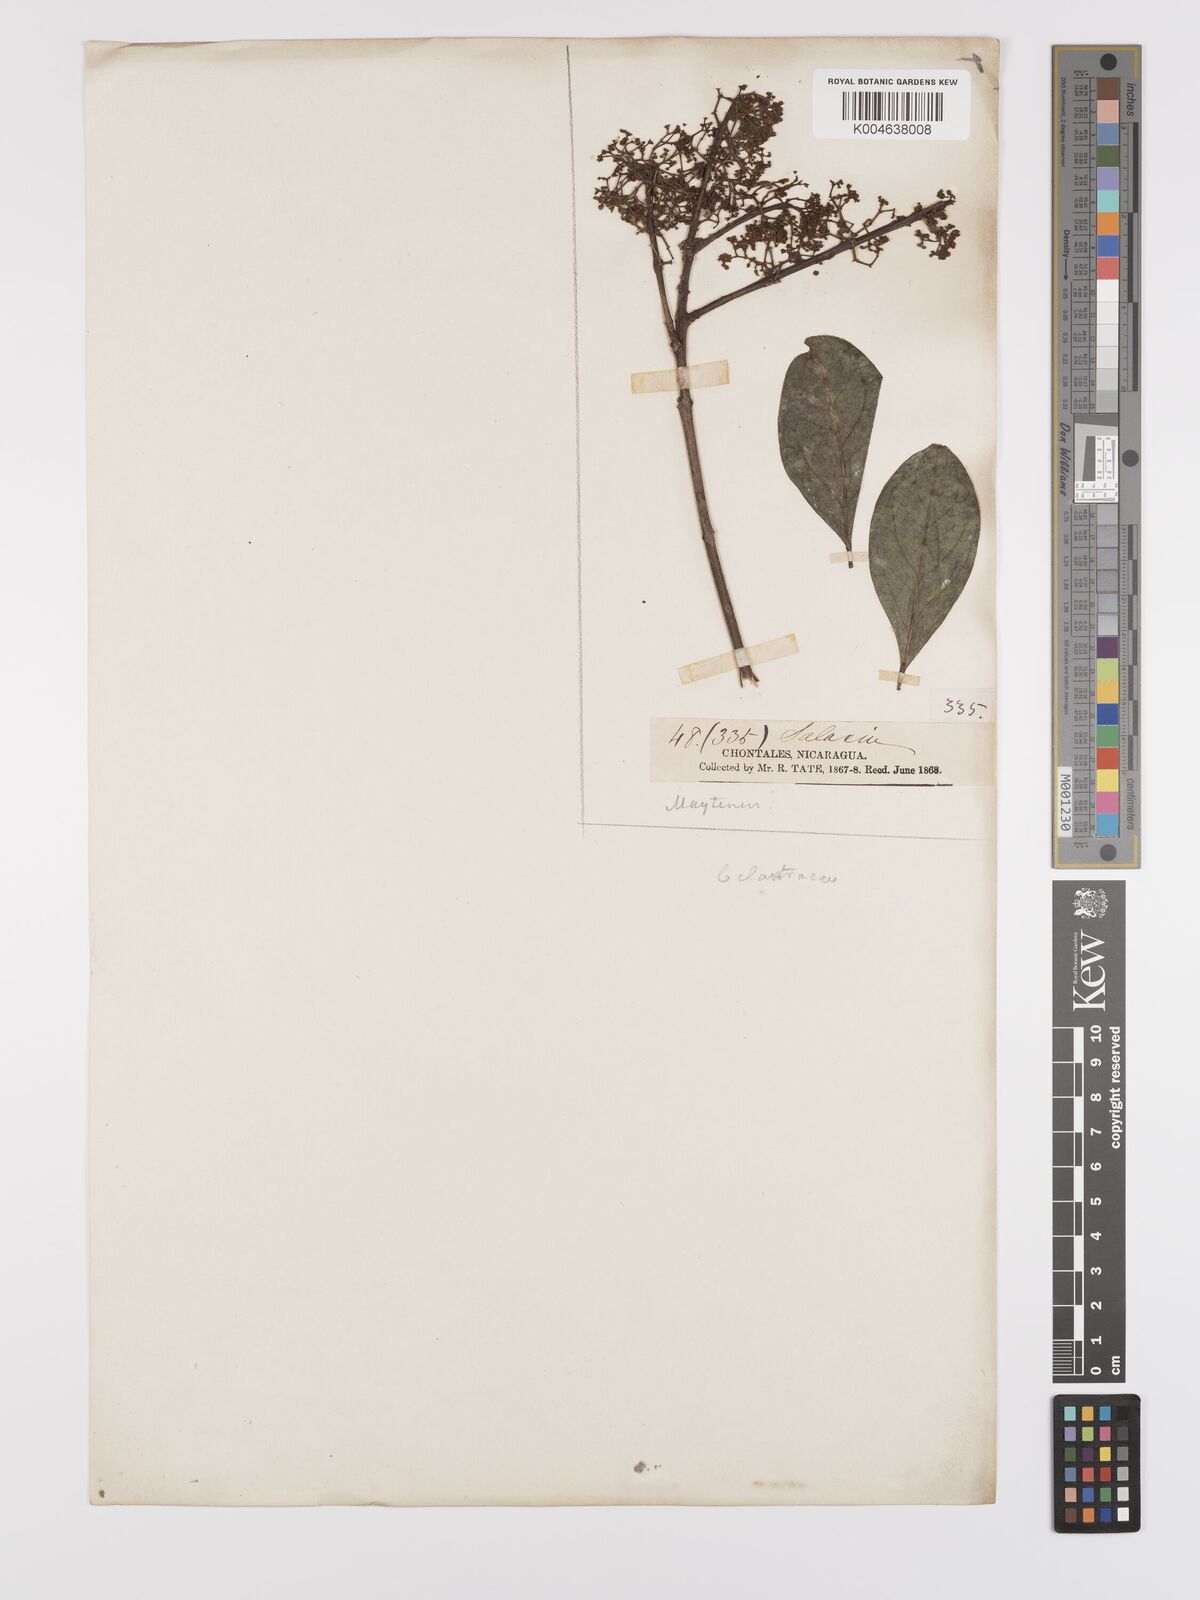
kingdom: Plantae
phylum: Tracheophyta
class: Magnoliopsida
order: Celastrales
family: Celastraceae
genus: Maytenus
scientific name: Maytenus
